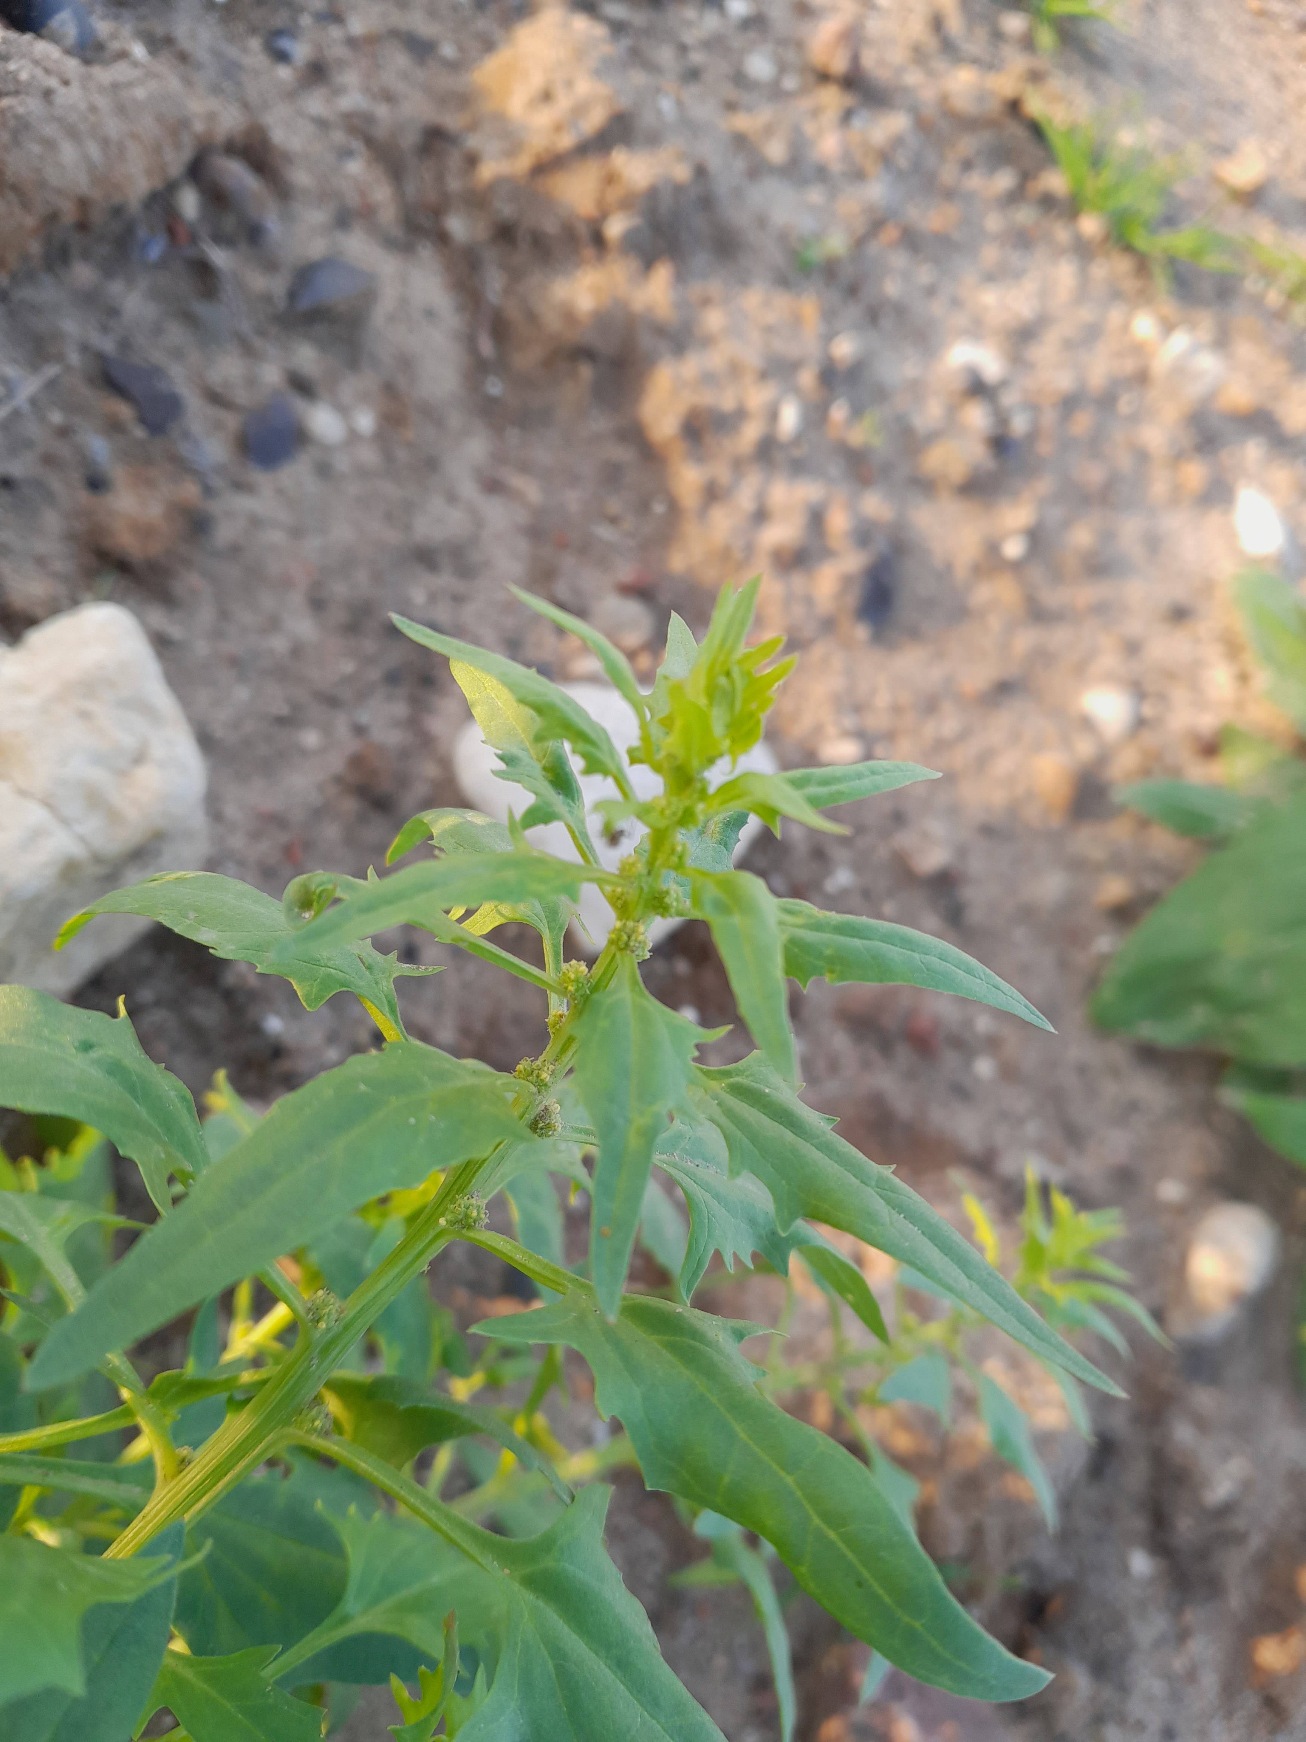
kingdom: Plantae
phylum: Tracheophyta
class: Magnoliopsida
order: Caryophyllales
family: Amaranthaceae
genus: Blitum
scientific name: Blitum virgatum
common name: Aks-jordbærspinat
